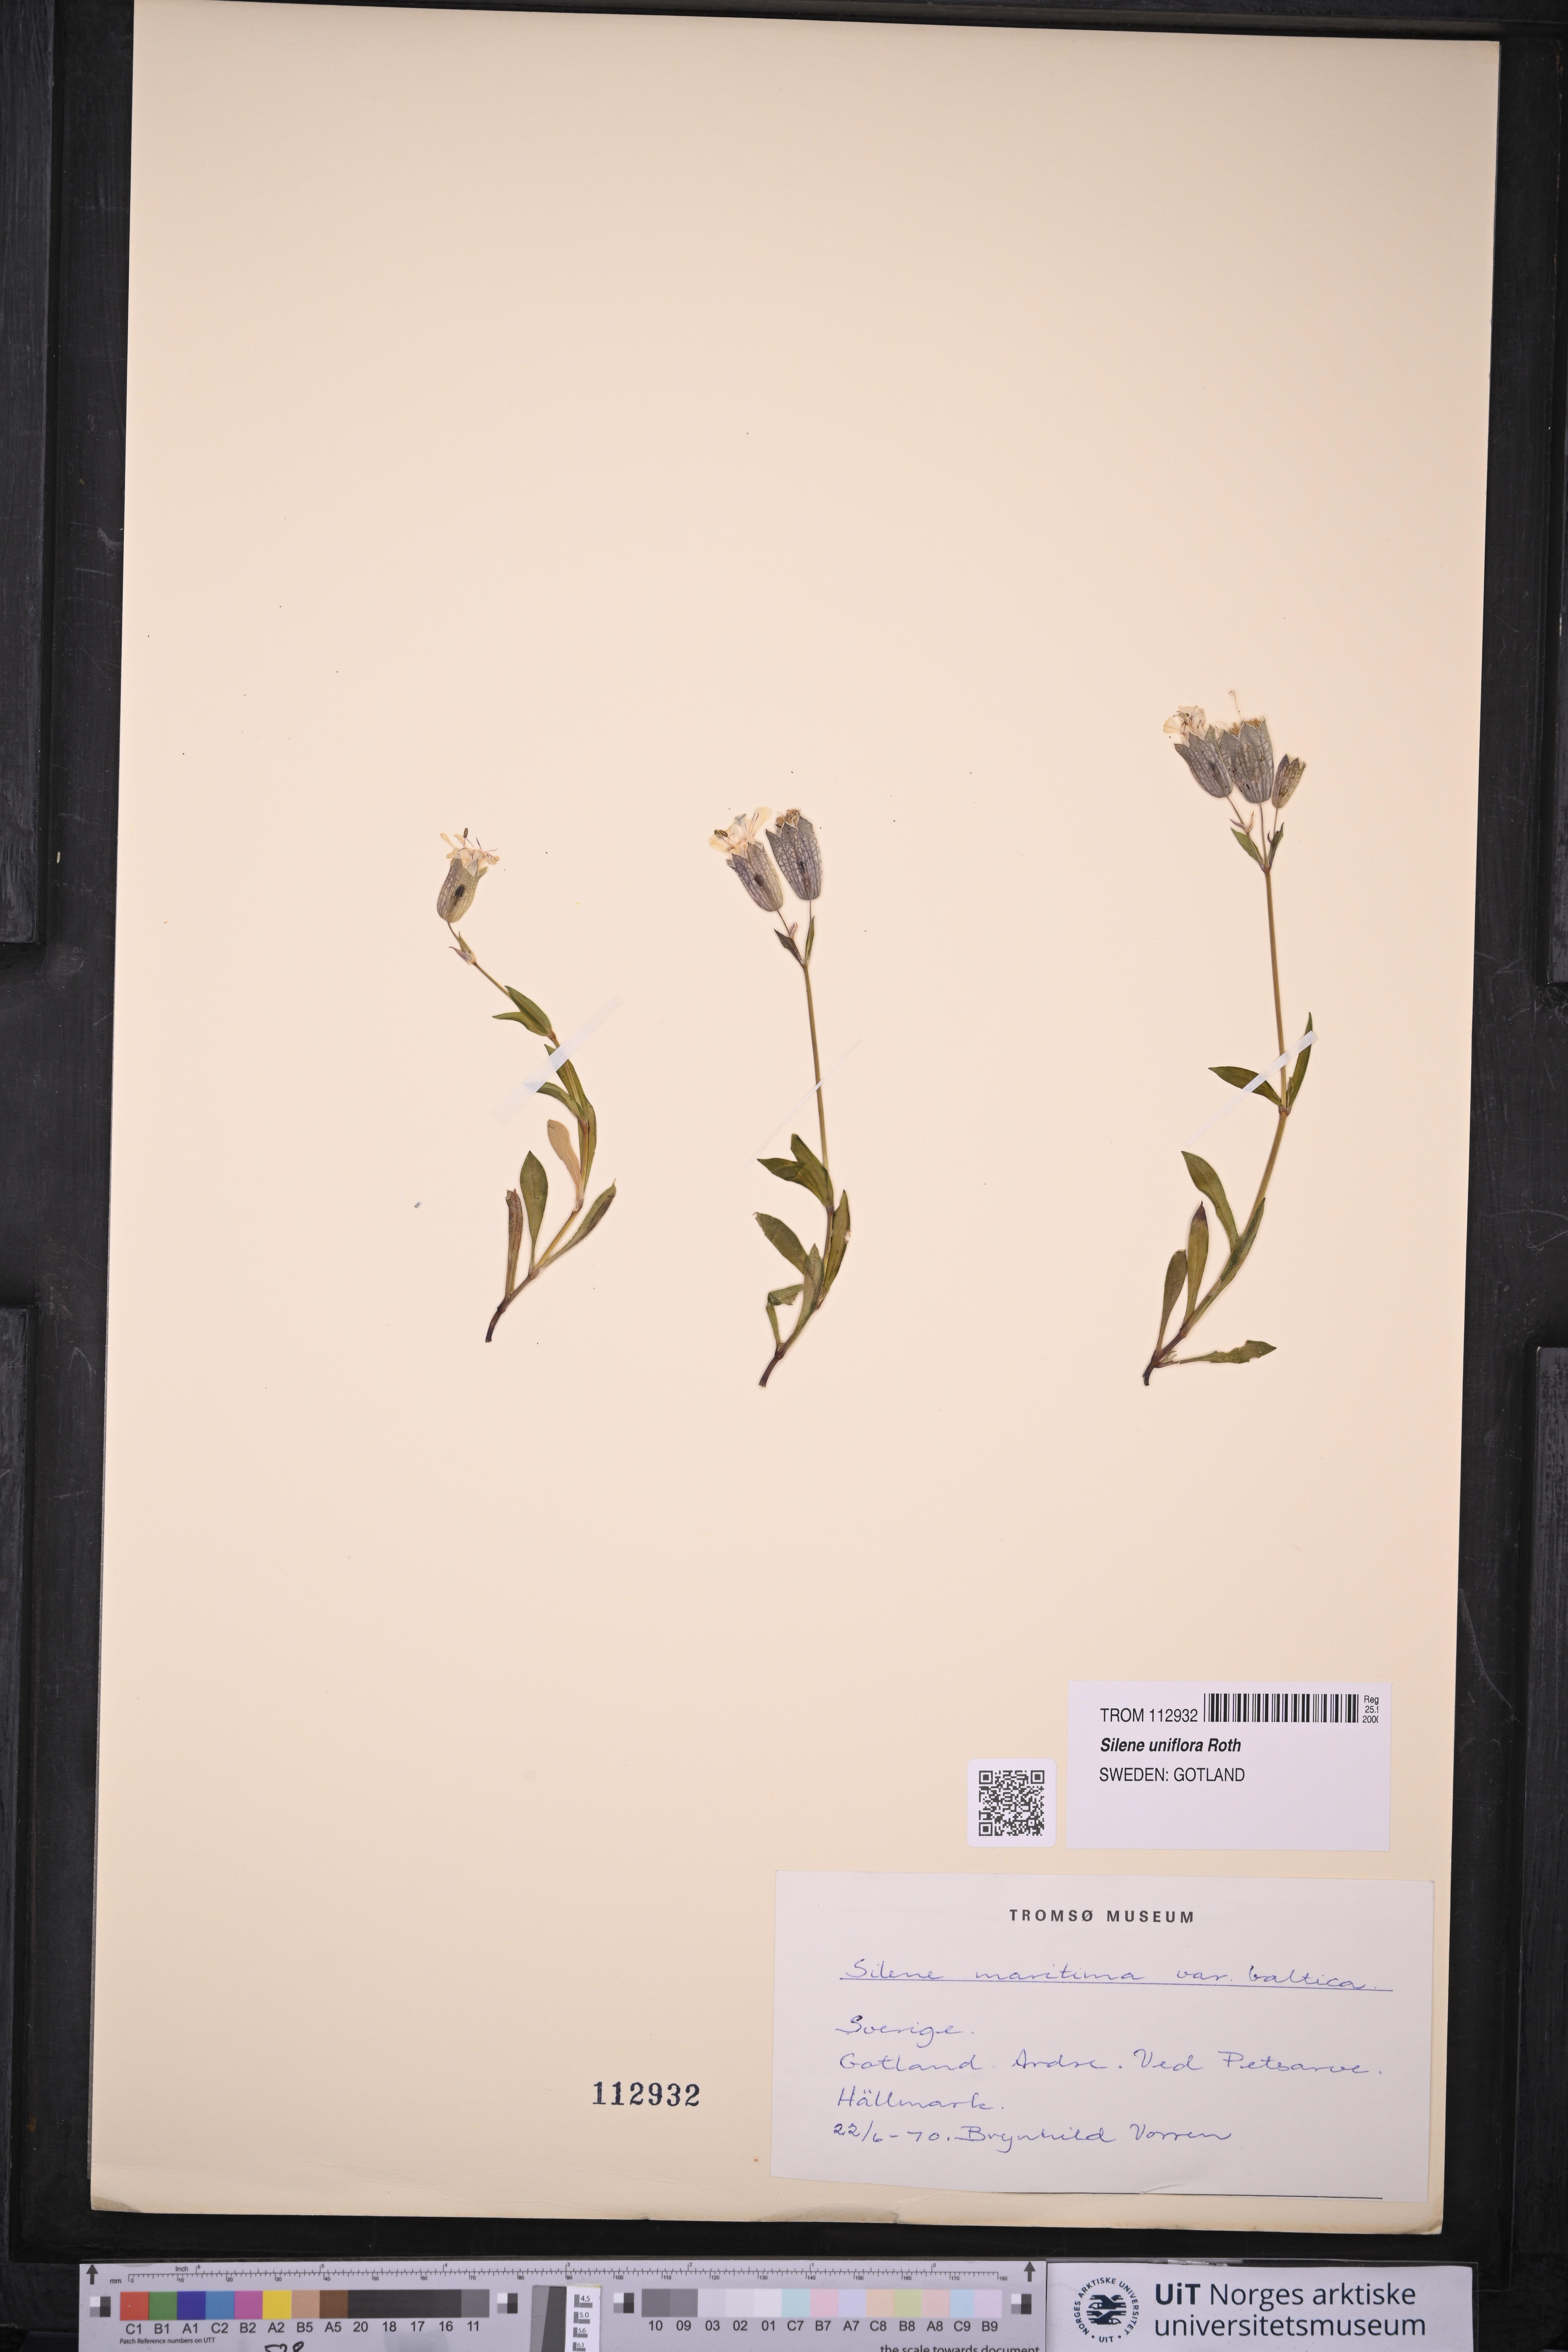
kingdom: Plantae
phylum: Tracheophyta
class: Magnoliopsida
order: Caryophyllales
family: Caryophyllaceae
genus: Silene
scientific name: Silene uniflora
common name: Sea campion
